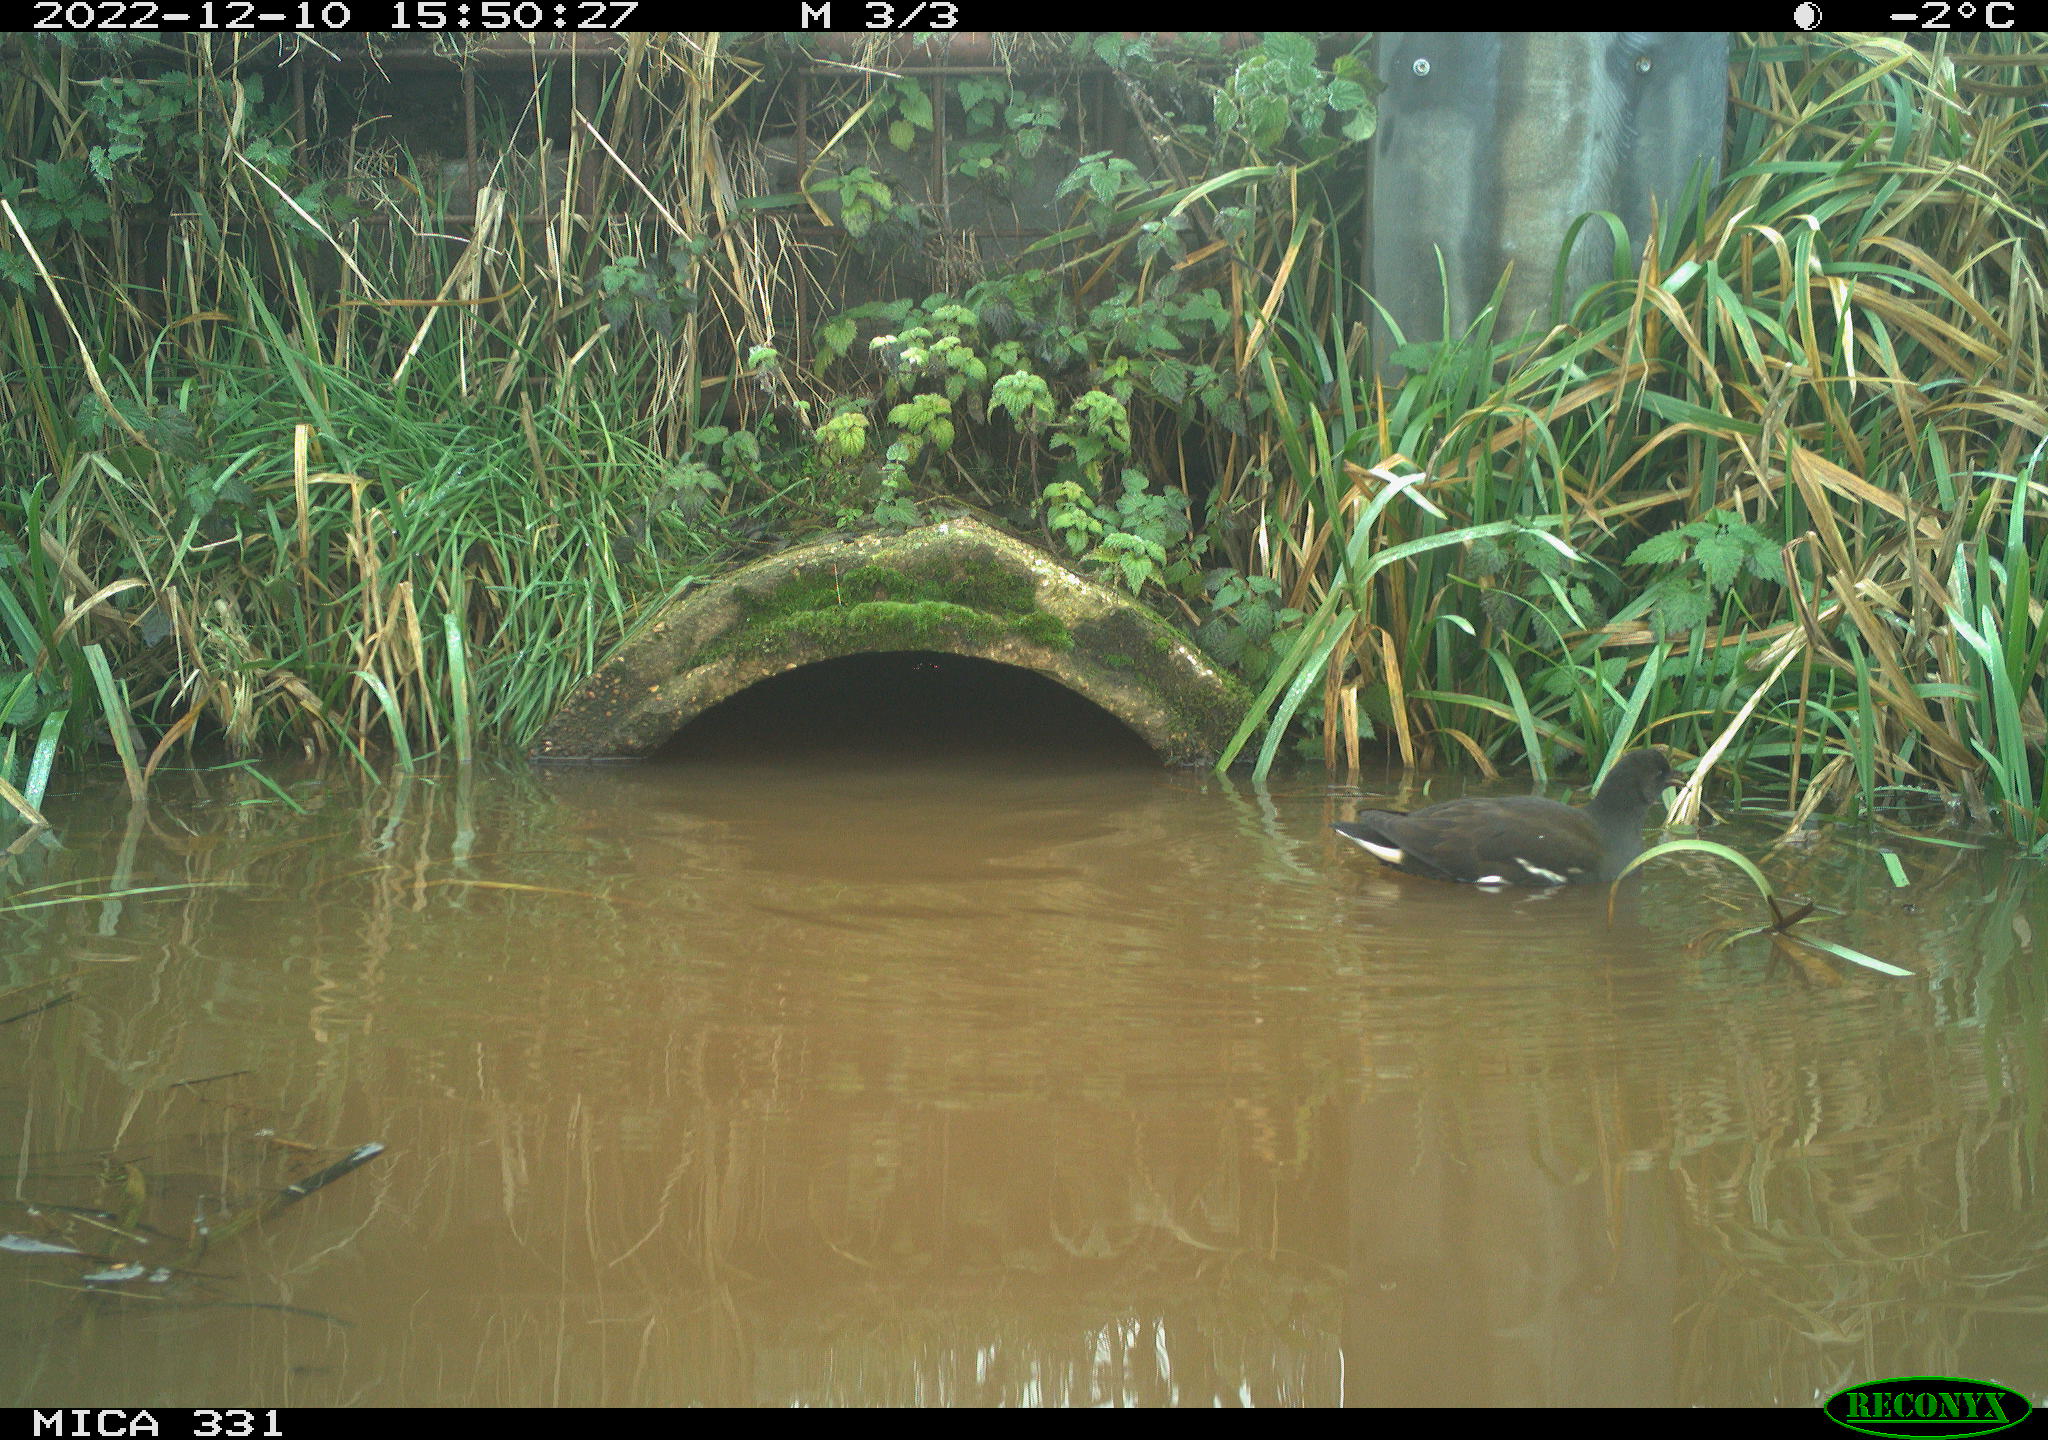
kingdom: Animalia
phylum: Chordata
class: Aves
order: Gruiformes
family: Rallidae
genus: Gallinula
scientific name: Gallinula chloropus
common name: Common moorhen
